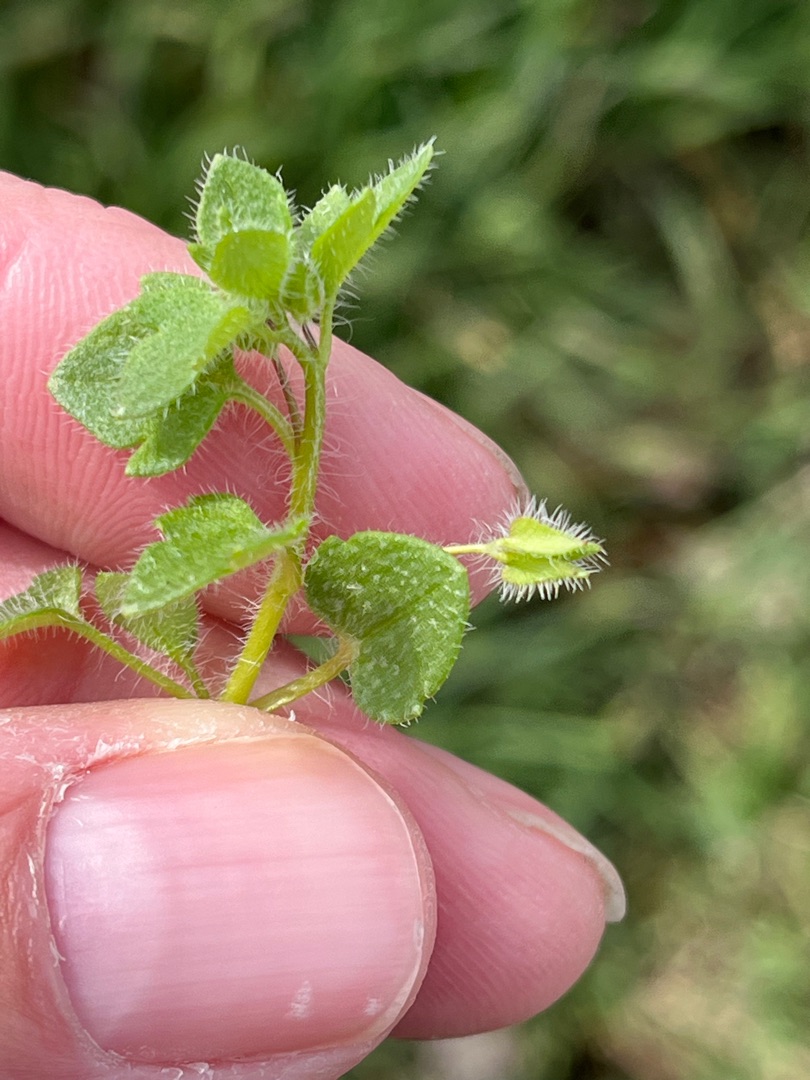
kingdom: Plantae
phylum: Tracheophyta
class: Magnoliopsida
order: Lamiales
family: Plantaginaceae
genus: Veronica
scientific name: Veronica sublobata
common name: Krat-ærenpris
